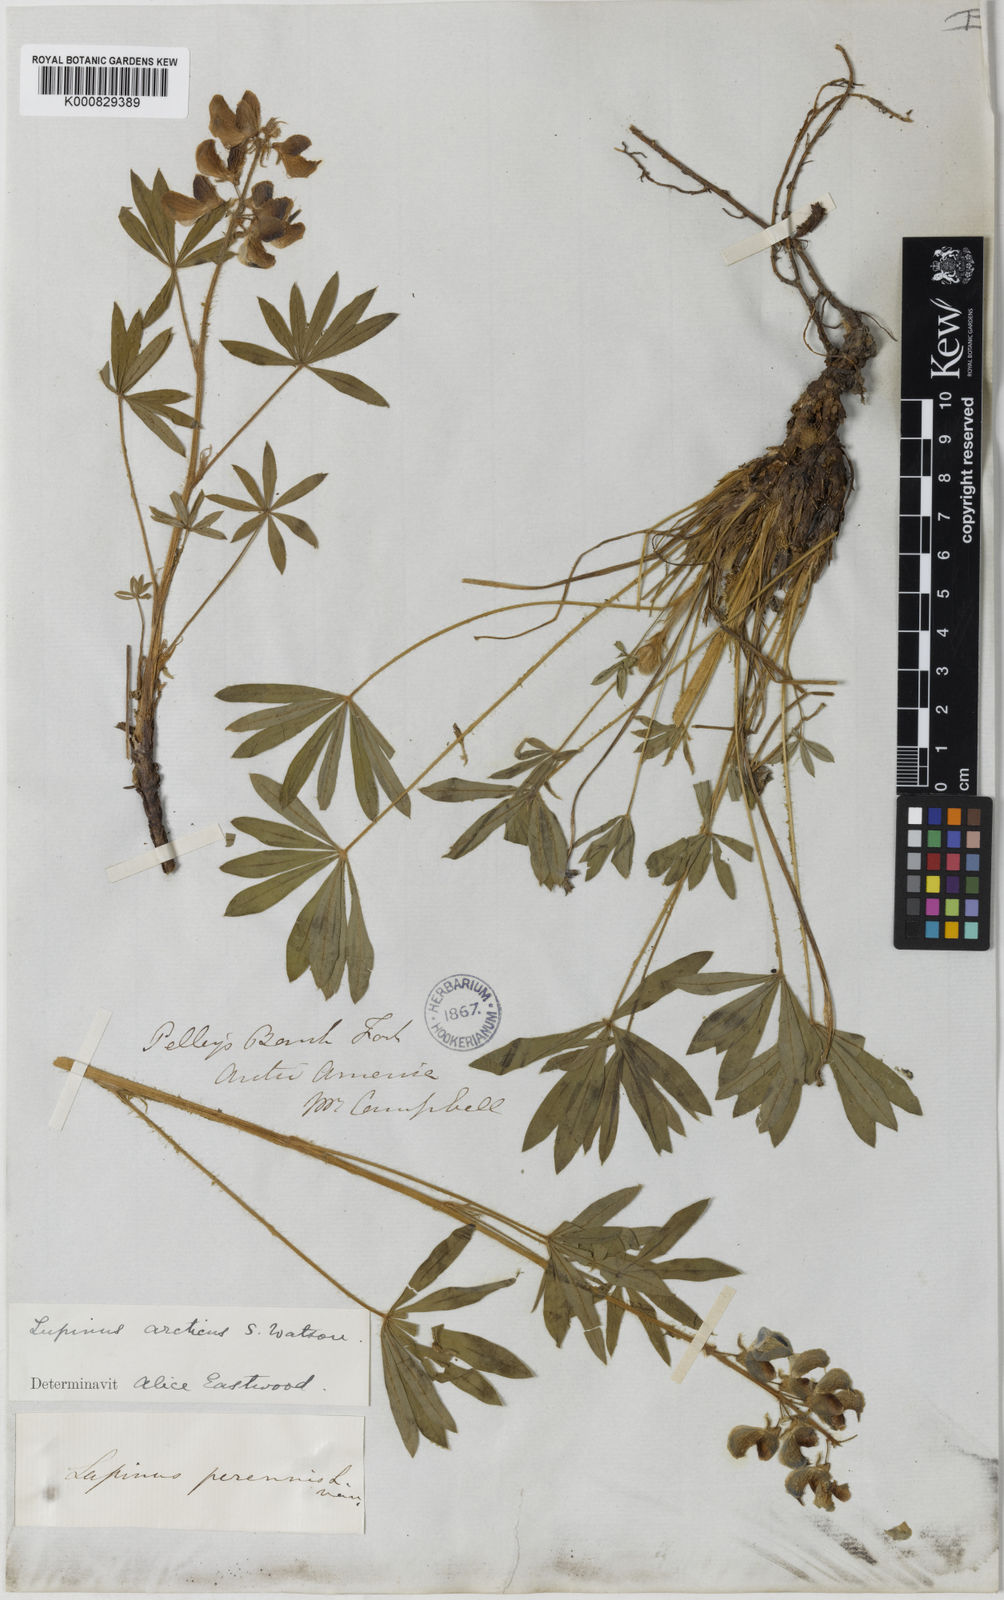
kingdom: Plantae
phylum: Tracheophyta
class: Magnoliopsida
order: Fabales
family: Fabaceae
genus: Lupinus
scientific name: Lupinus arcticus
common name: Arctic lupine
